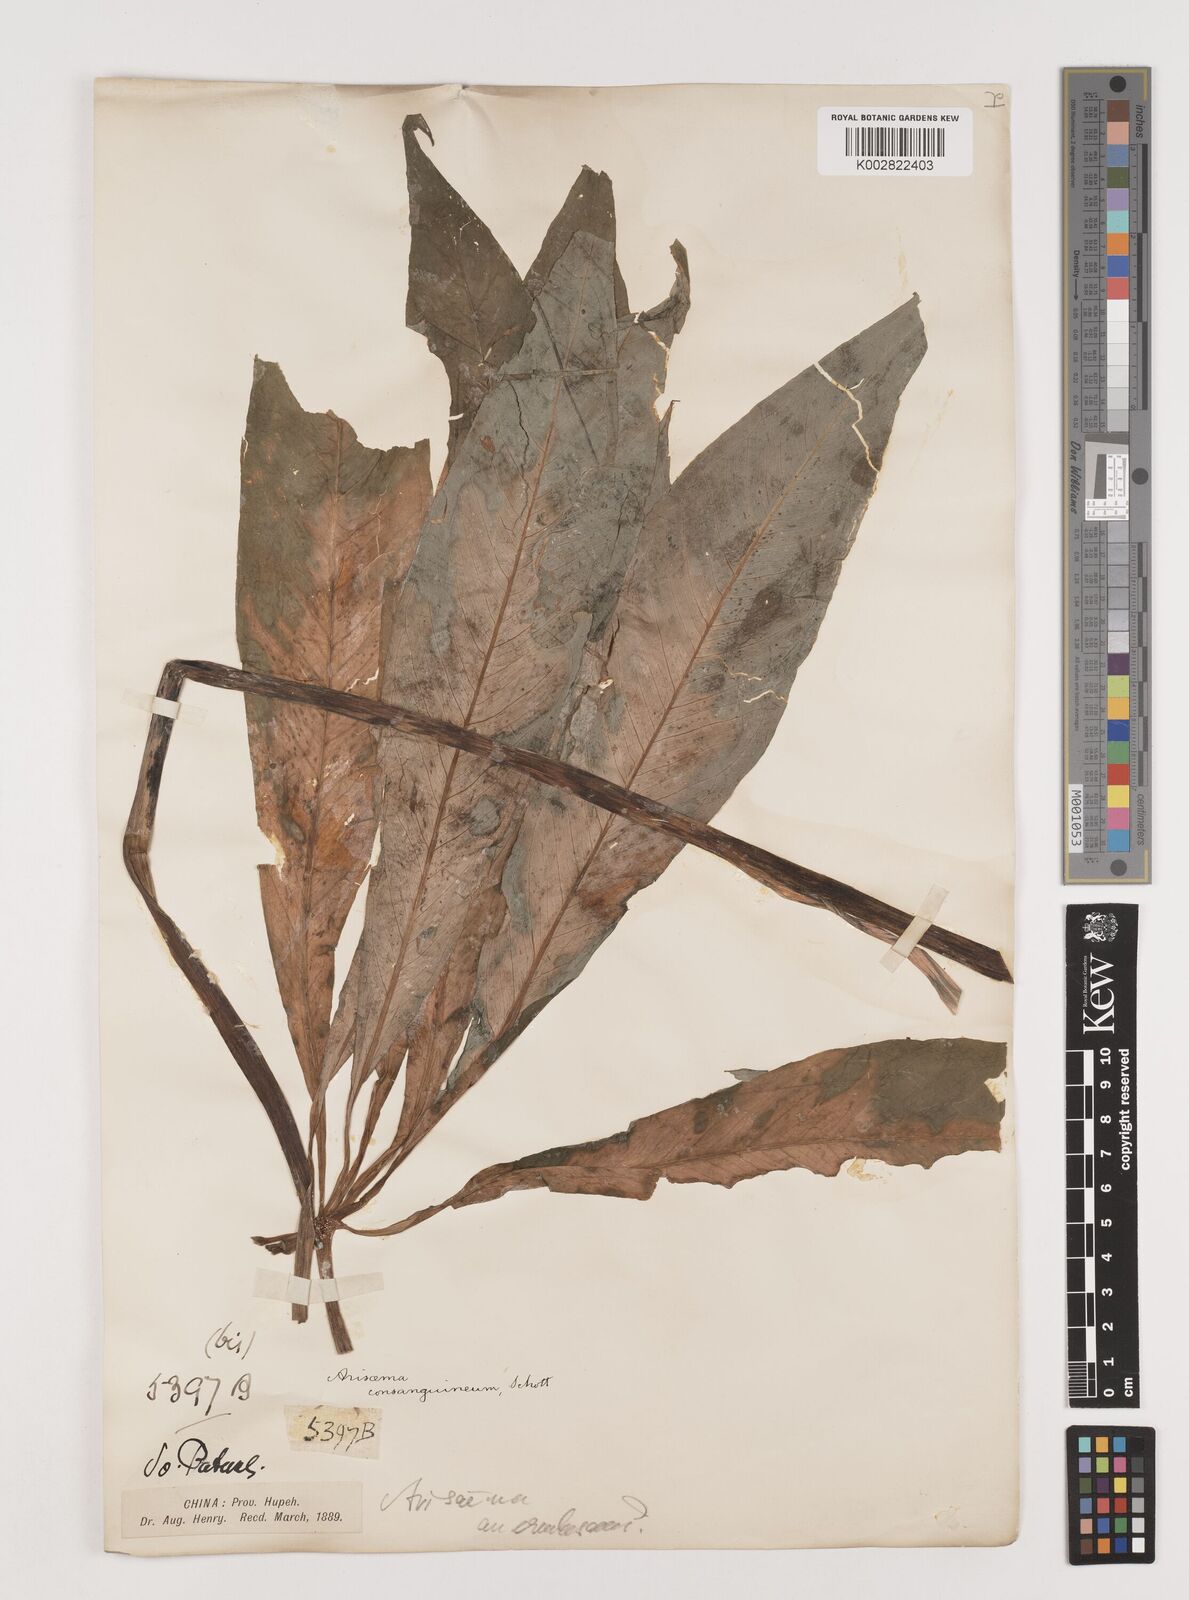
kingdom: Plantae
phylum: Tracheophyta
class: Liliopsida
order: Alismatales
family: Araceae
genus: Arisaema
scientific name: Arisaema erubescens
